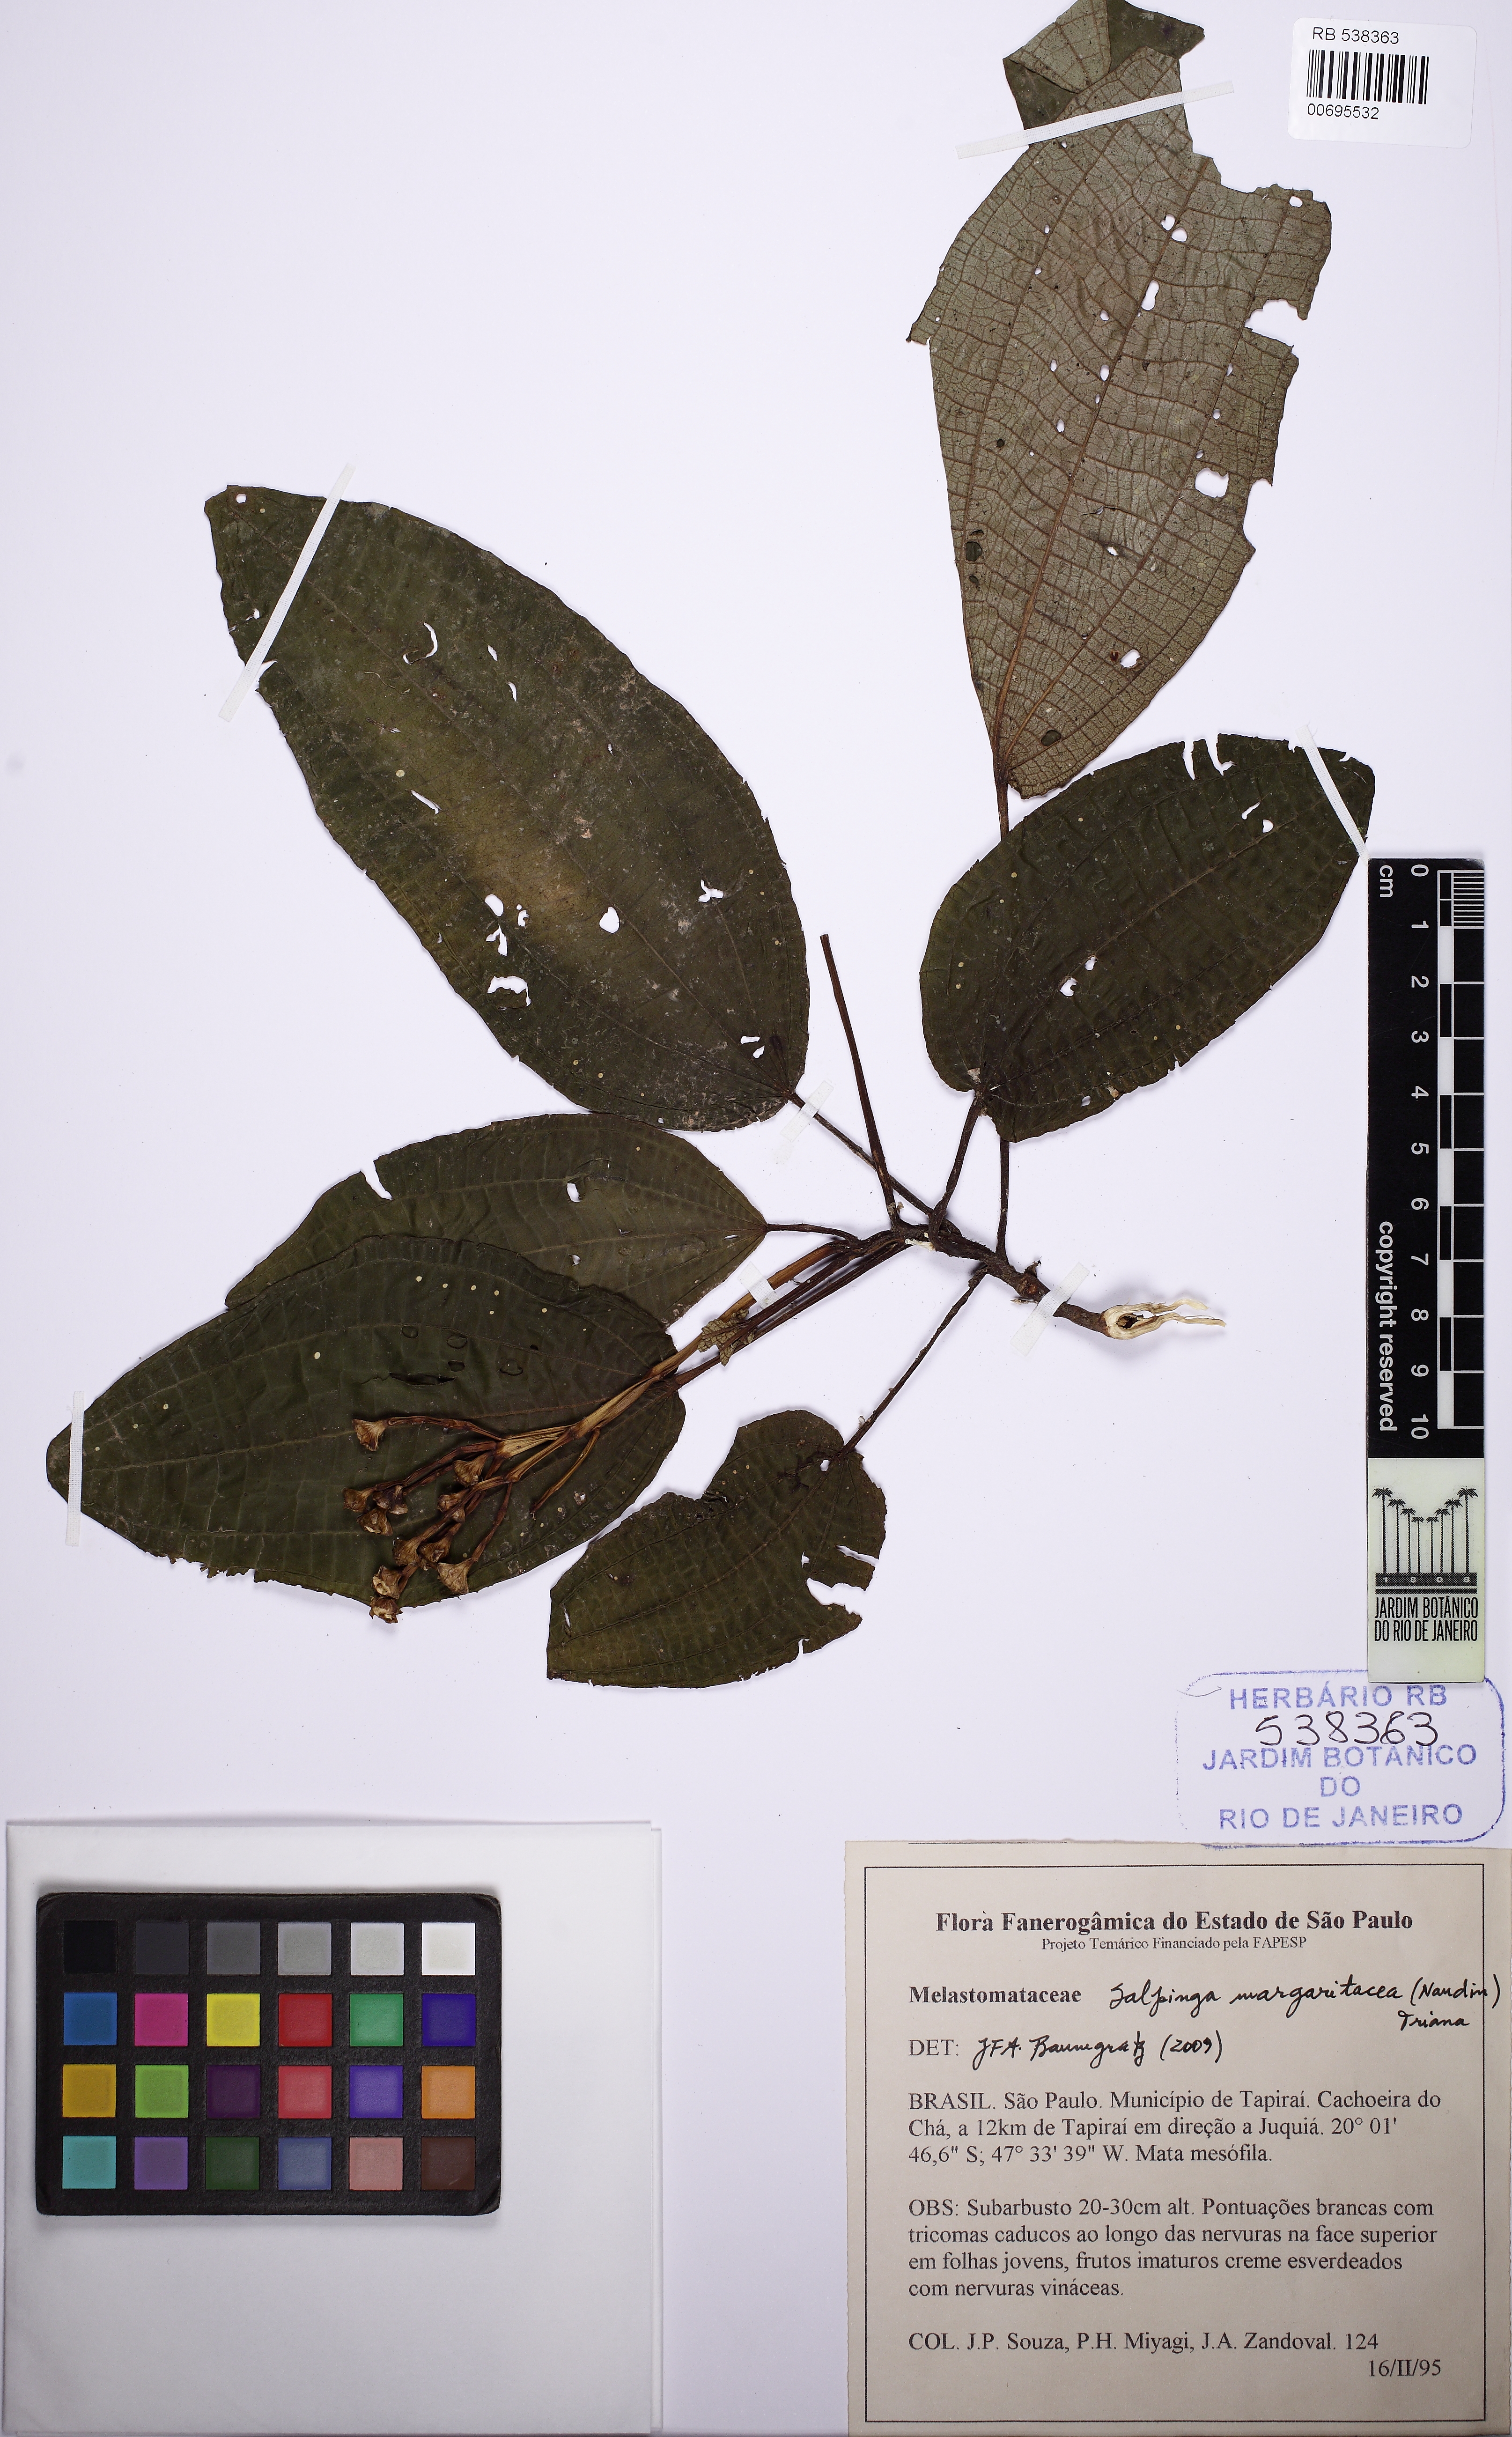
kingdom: Plantae
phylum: Tracheophyta
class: Magnoliopsida
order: Myrtales
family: Melastomataceae
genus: Salpinga
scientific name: Salpinga margaritacea
